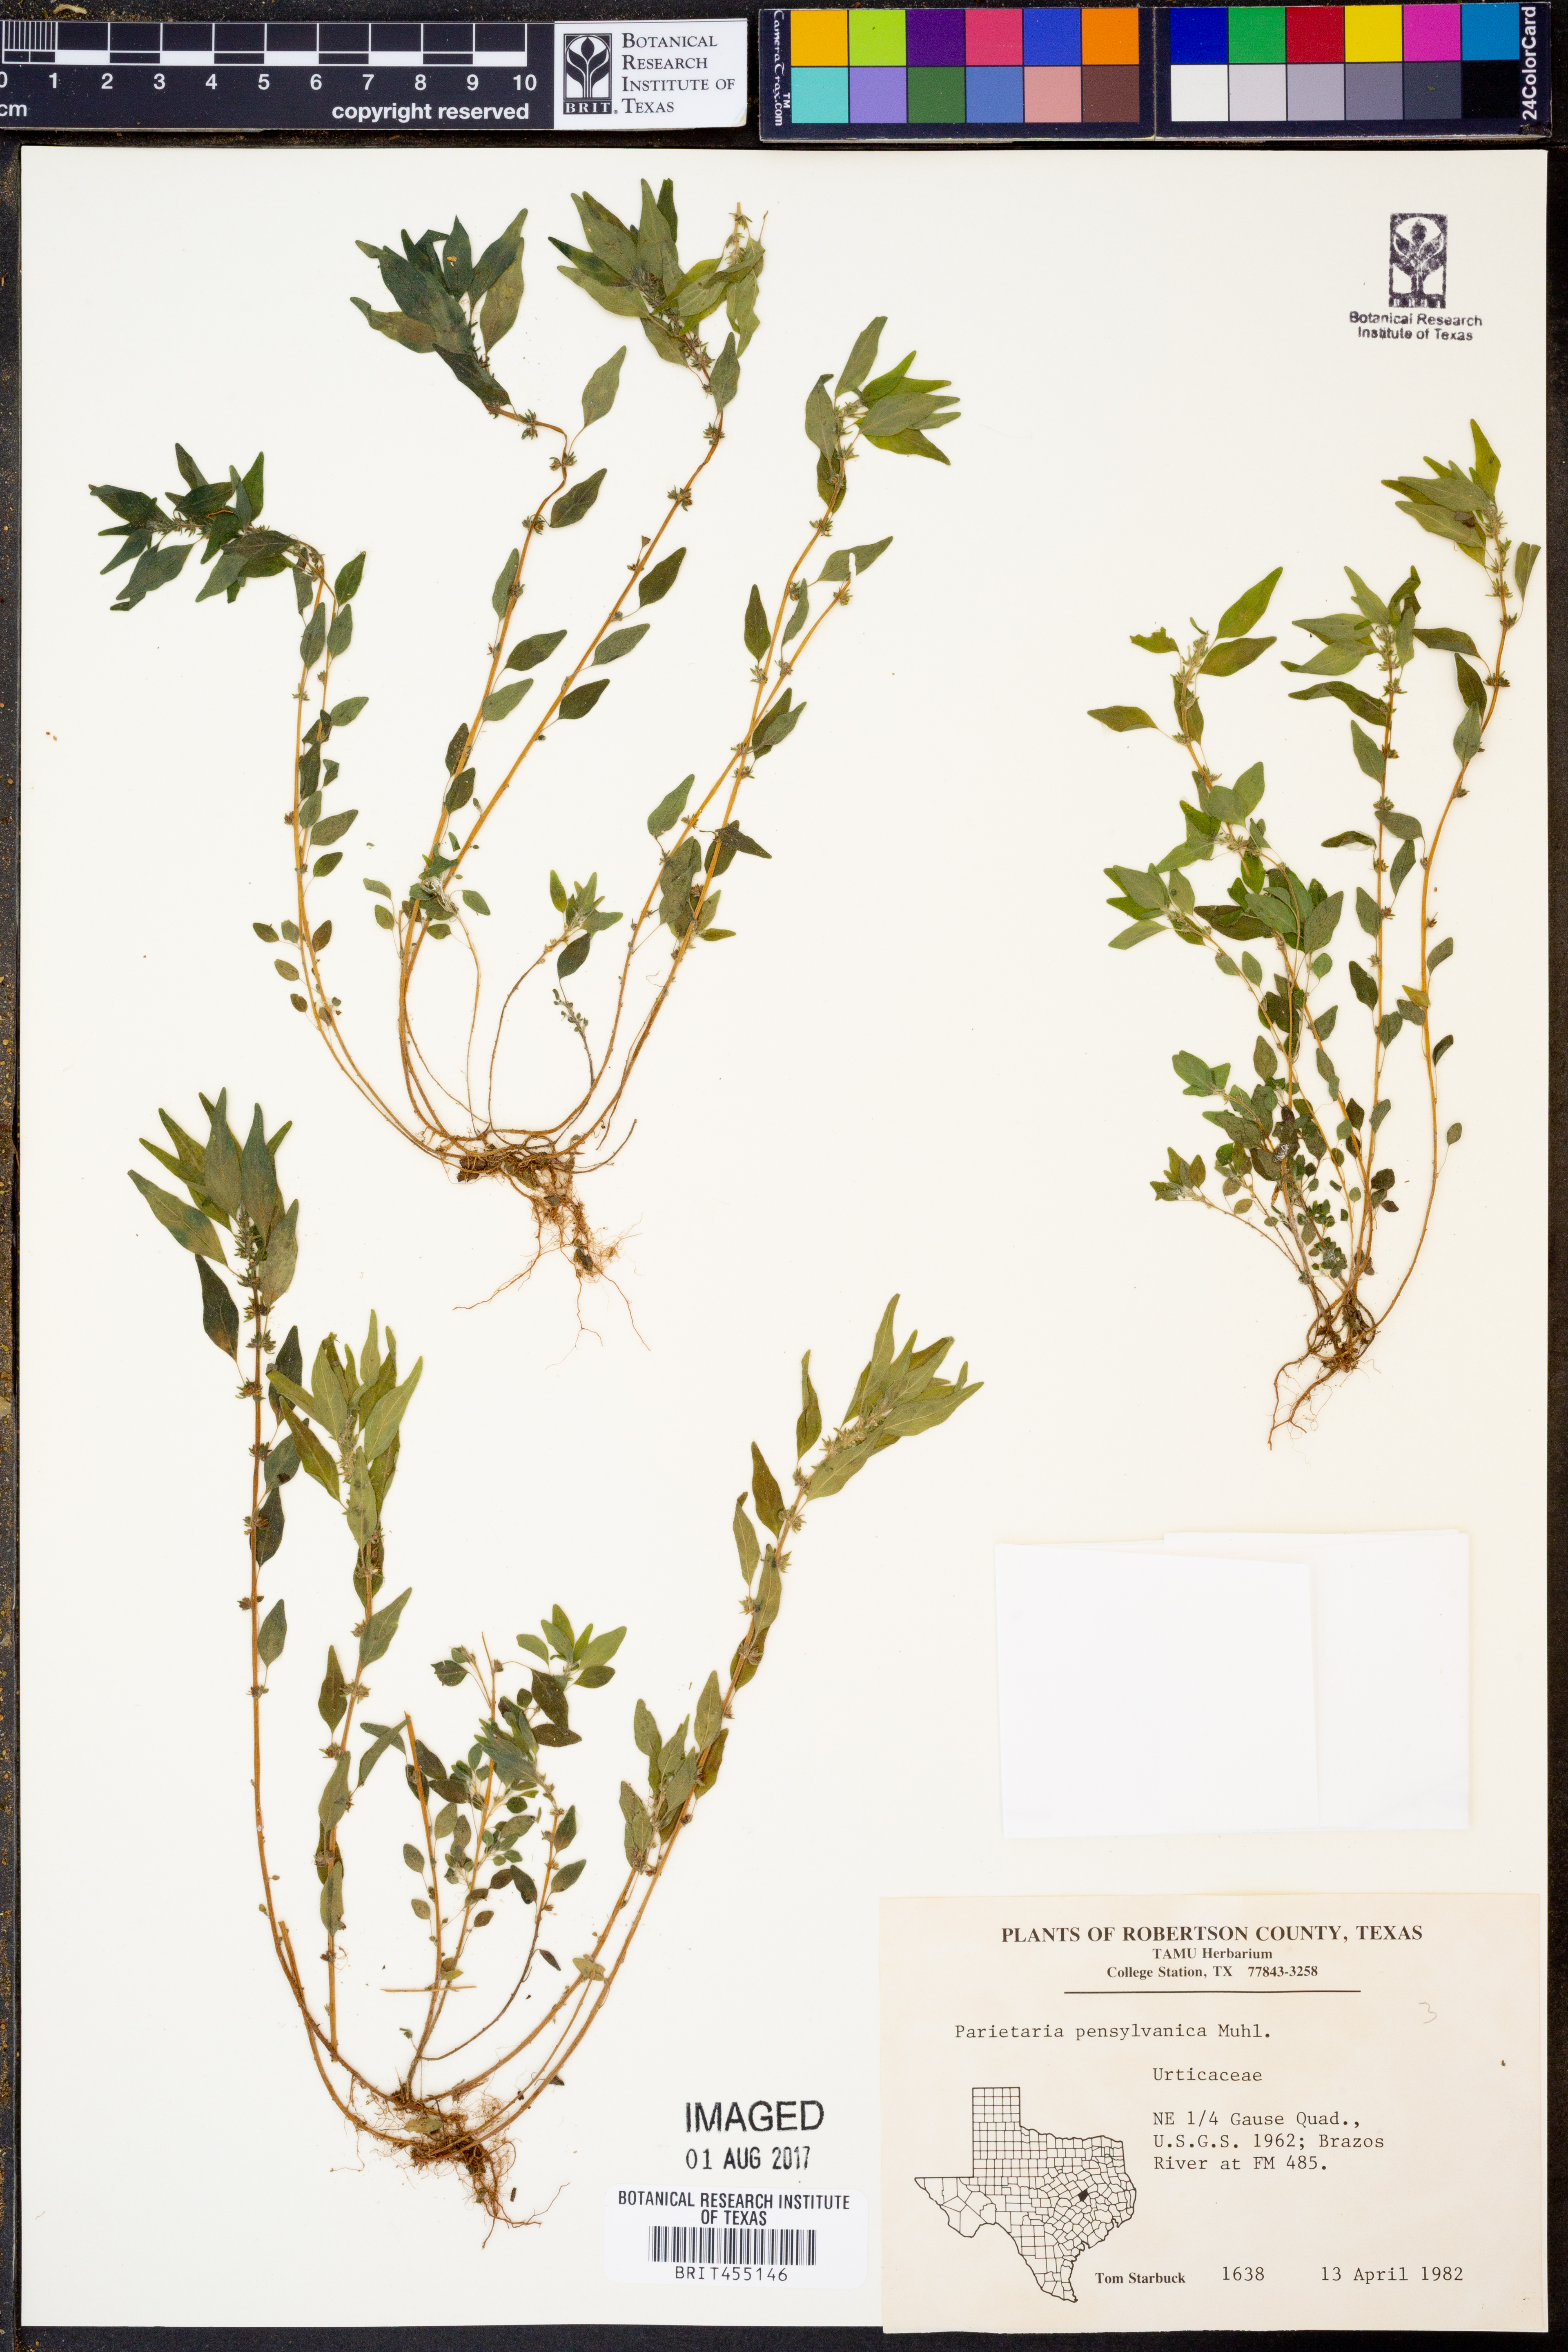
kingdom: Plantae
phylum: Tracheophyta
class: Magnoliopsida
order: Rosales
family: Urticaceae
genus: Parietaria
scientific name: Parietaria pensylvanica
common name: Pennsylvania pellitory
